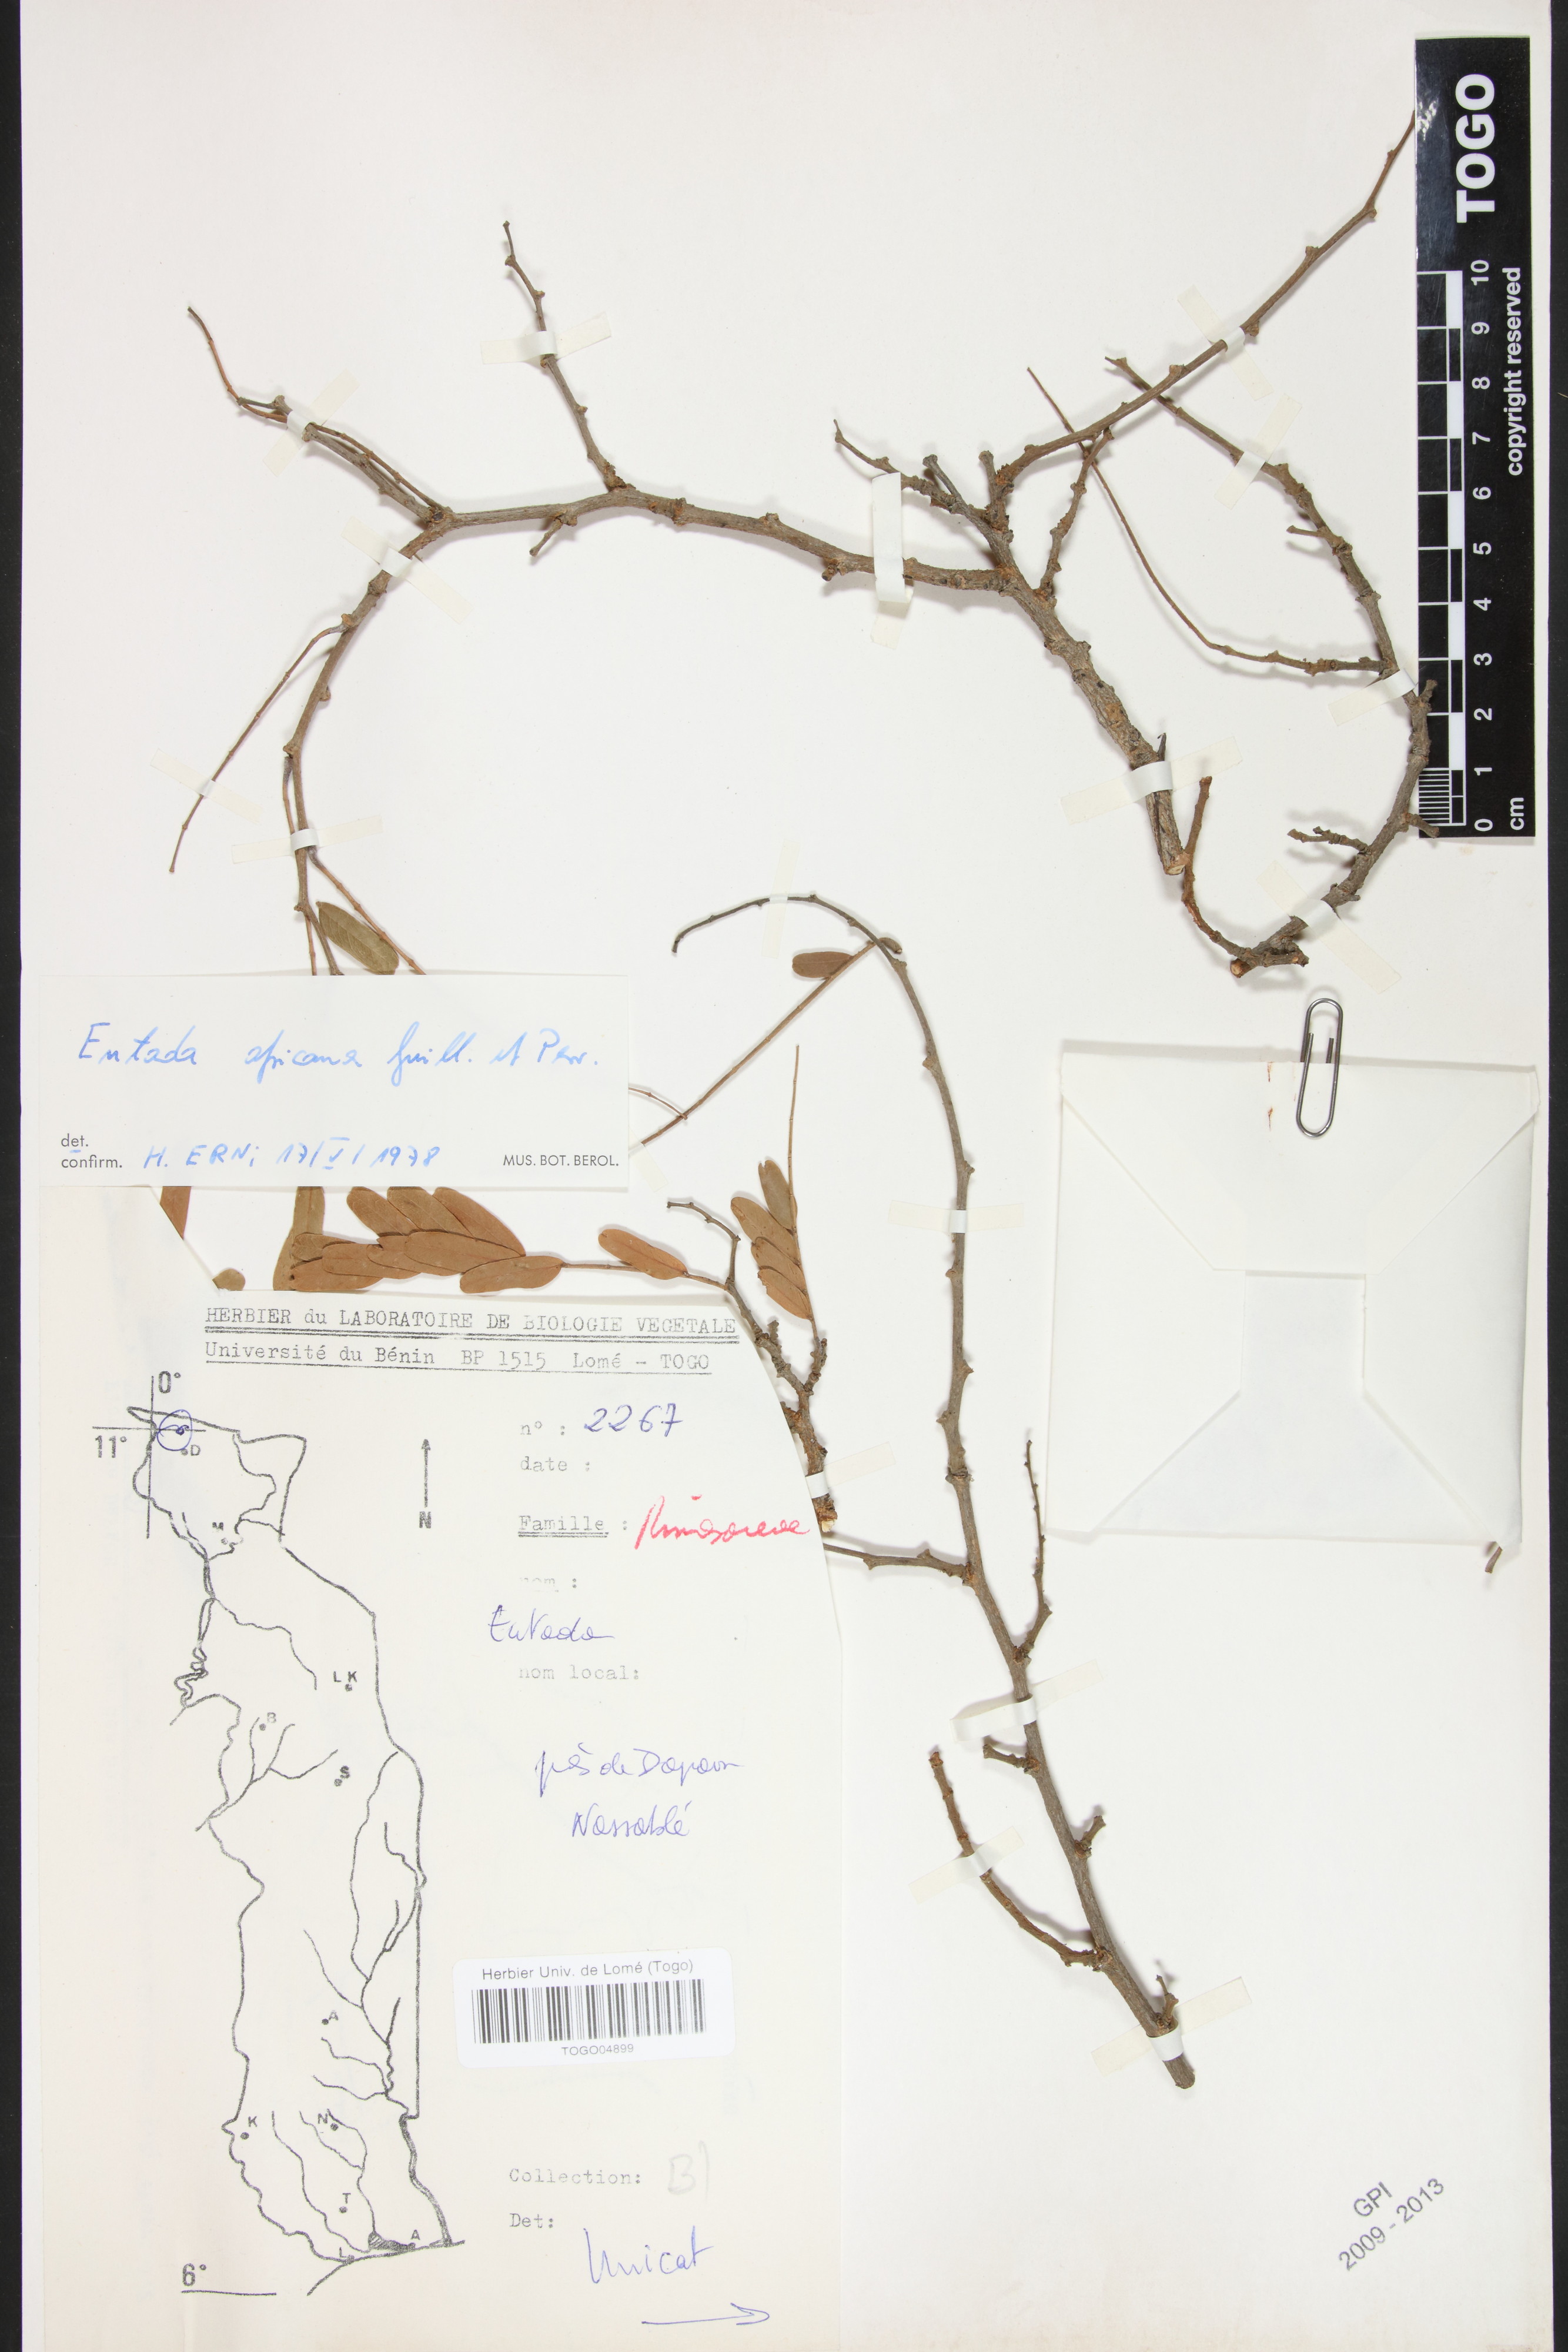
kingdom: Plantae
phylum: Tracheophyta
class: Magnoliopsida
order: Fabales
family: Fabaceae
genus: Entada
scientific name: Entada africana
